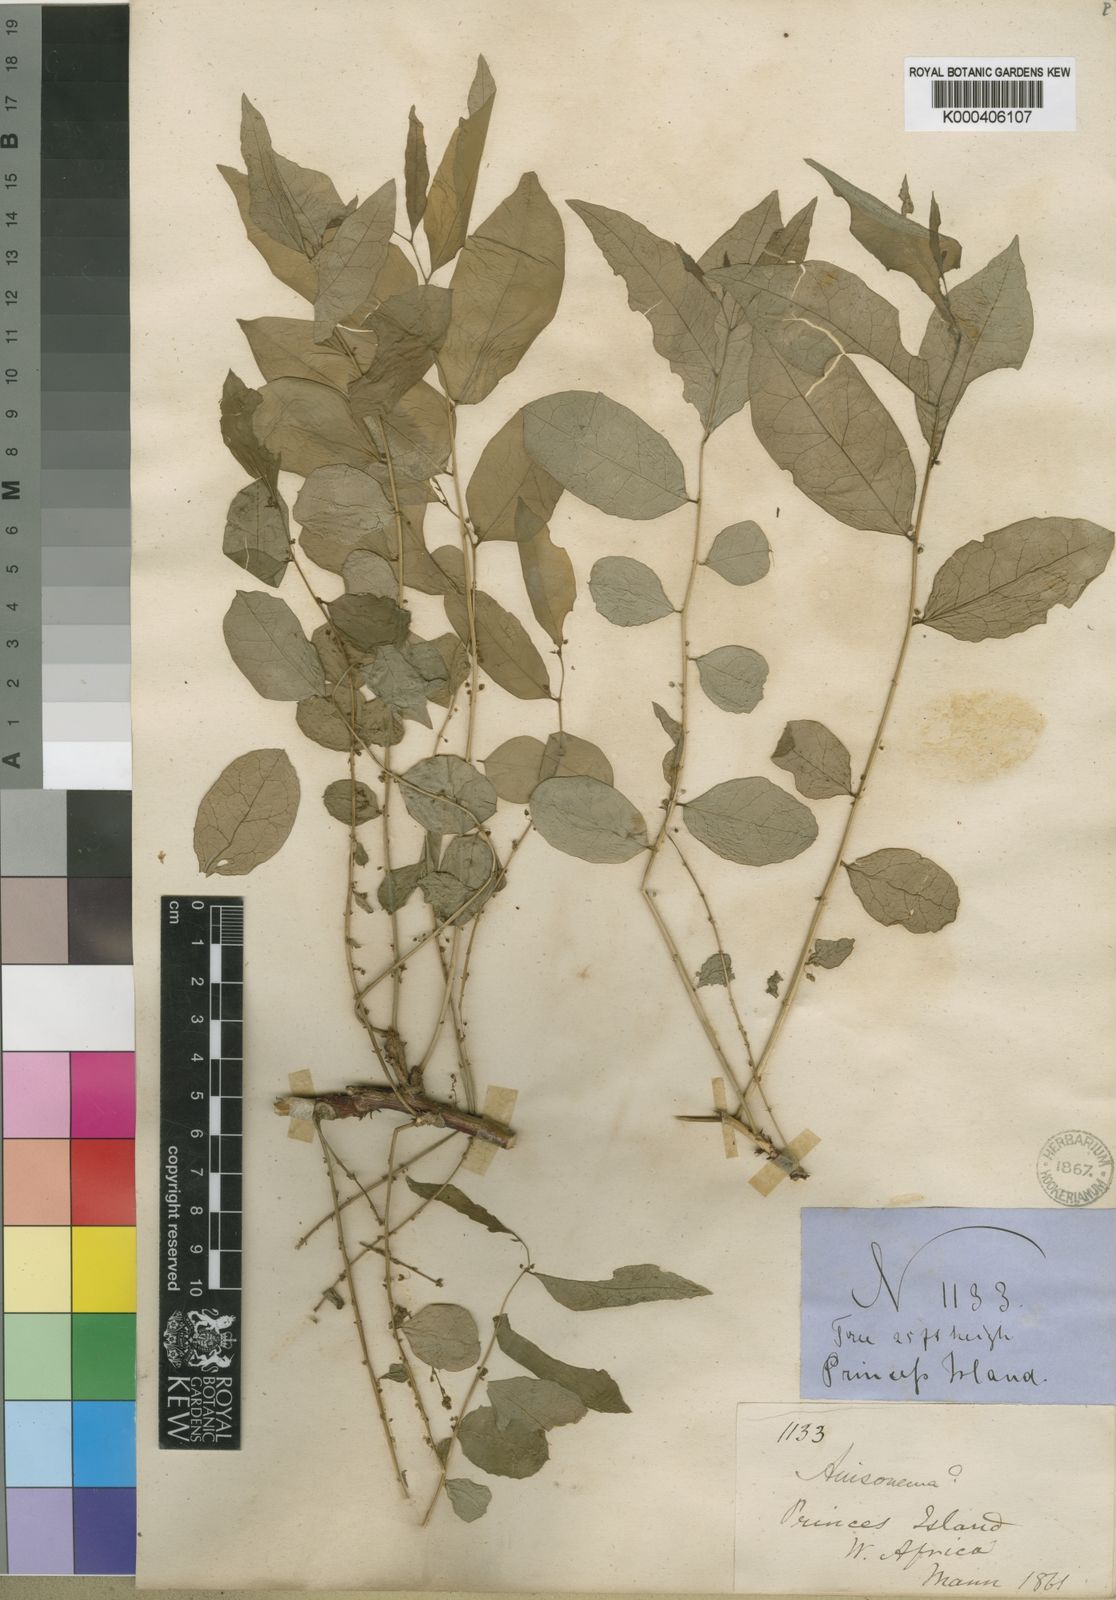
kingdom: Plantae
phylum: Tracheophyta
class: Magnoliopsida
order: Malpighiales
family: Phyllanthaceae
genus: Phyllanthus
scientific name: Phyllanthus
